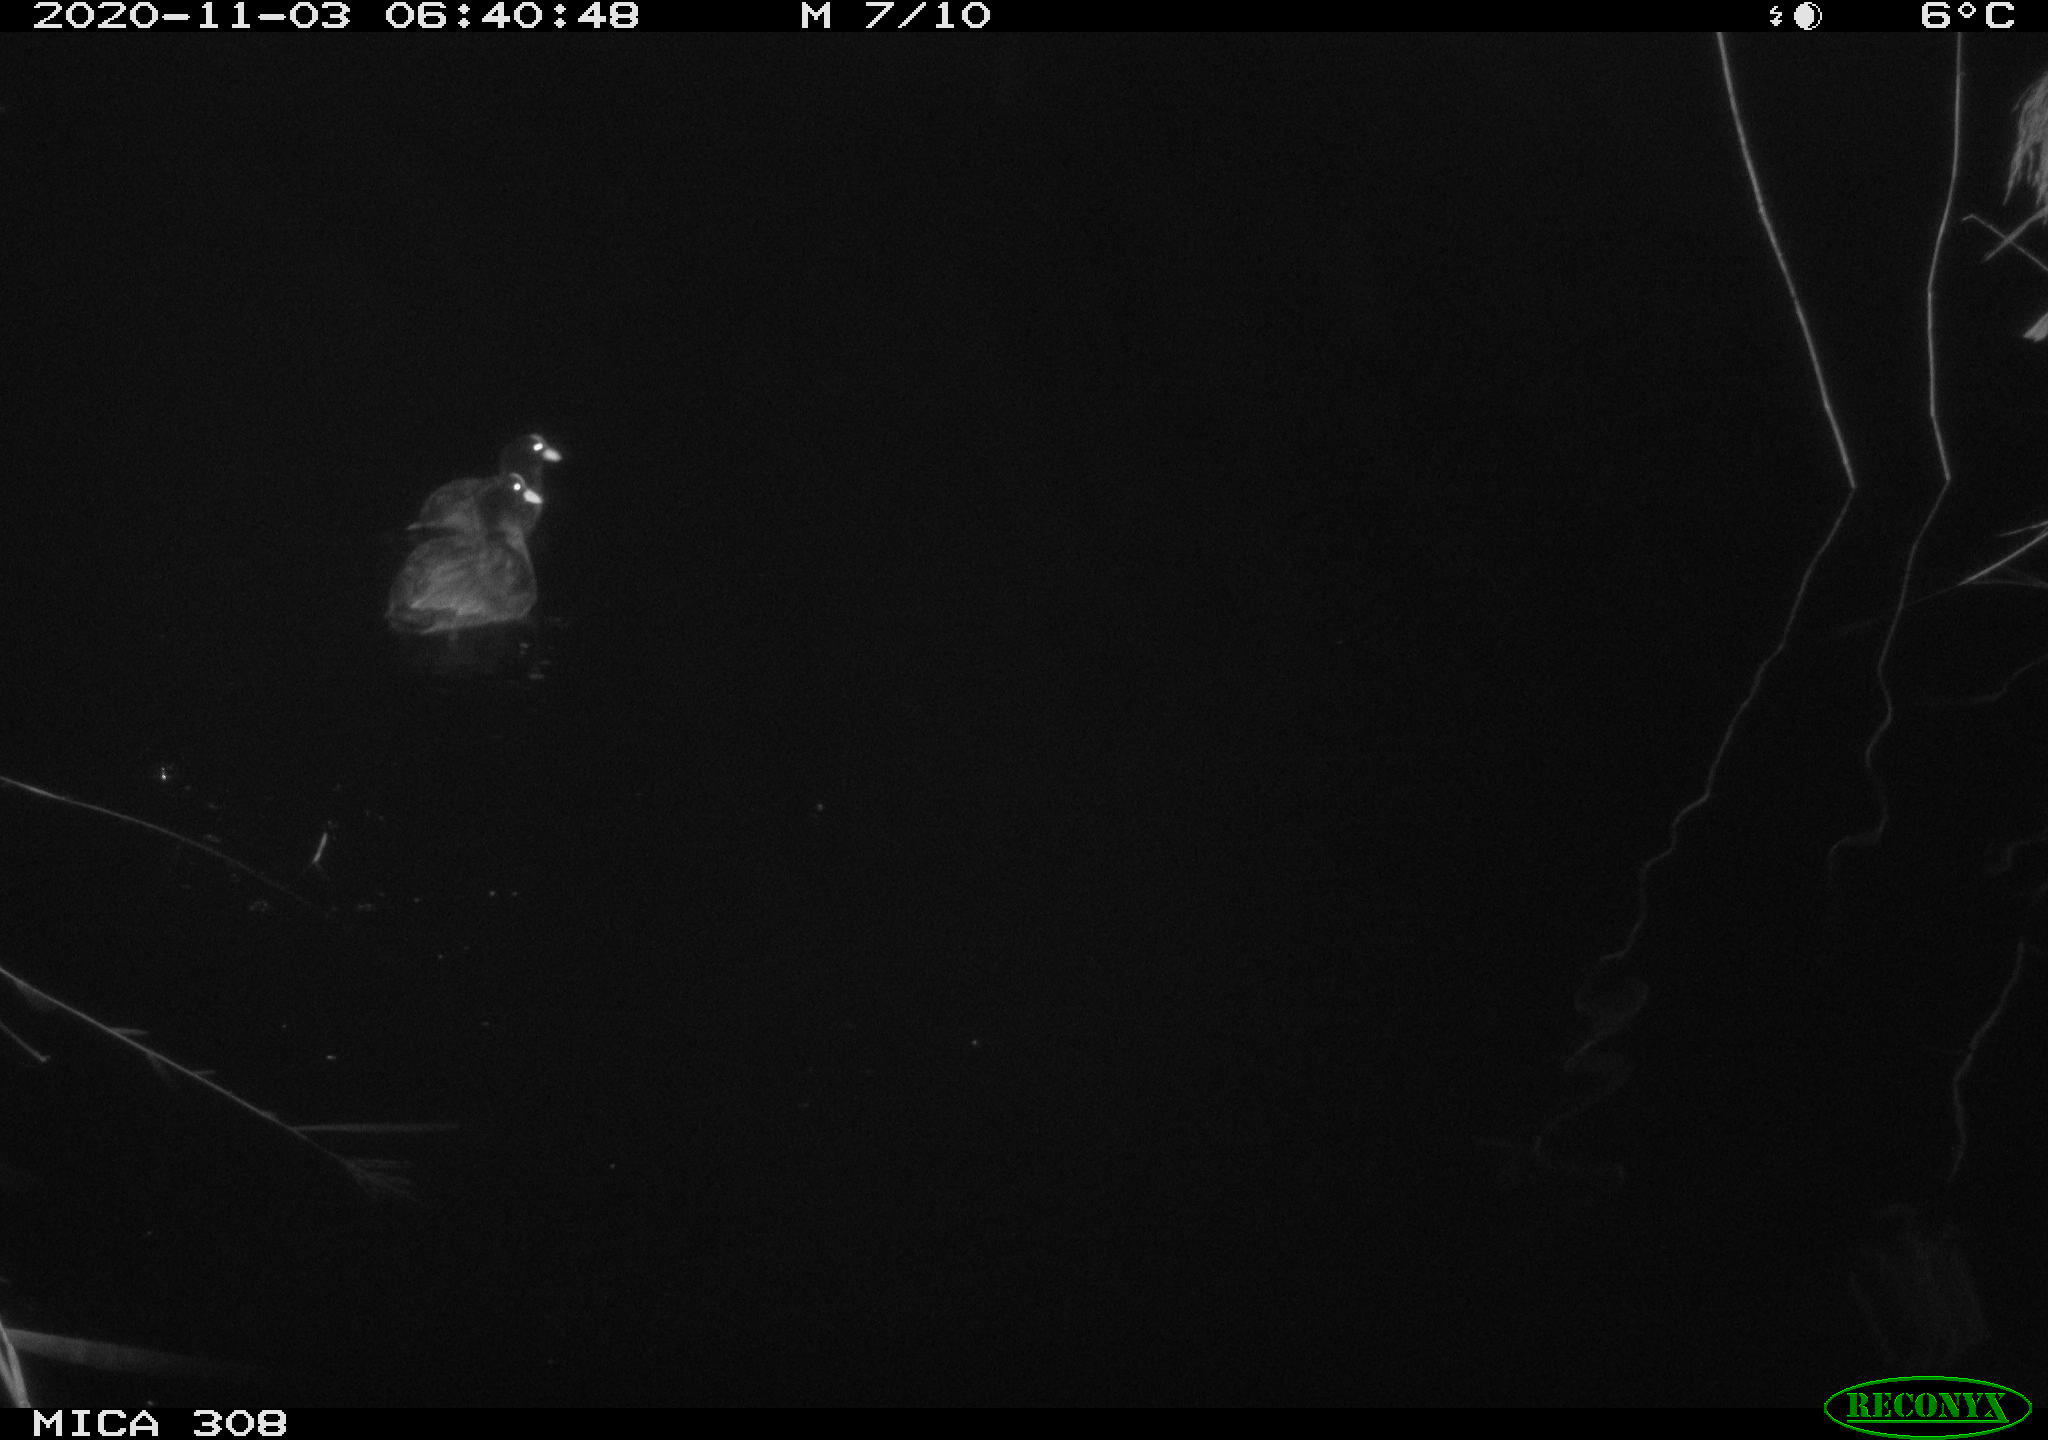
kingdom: Animalia
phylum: Chordata
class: Aves
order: Gruiformes
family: Rallidae
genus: Fulica
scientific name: Fulica atra
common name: Eurasian coot
